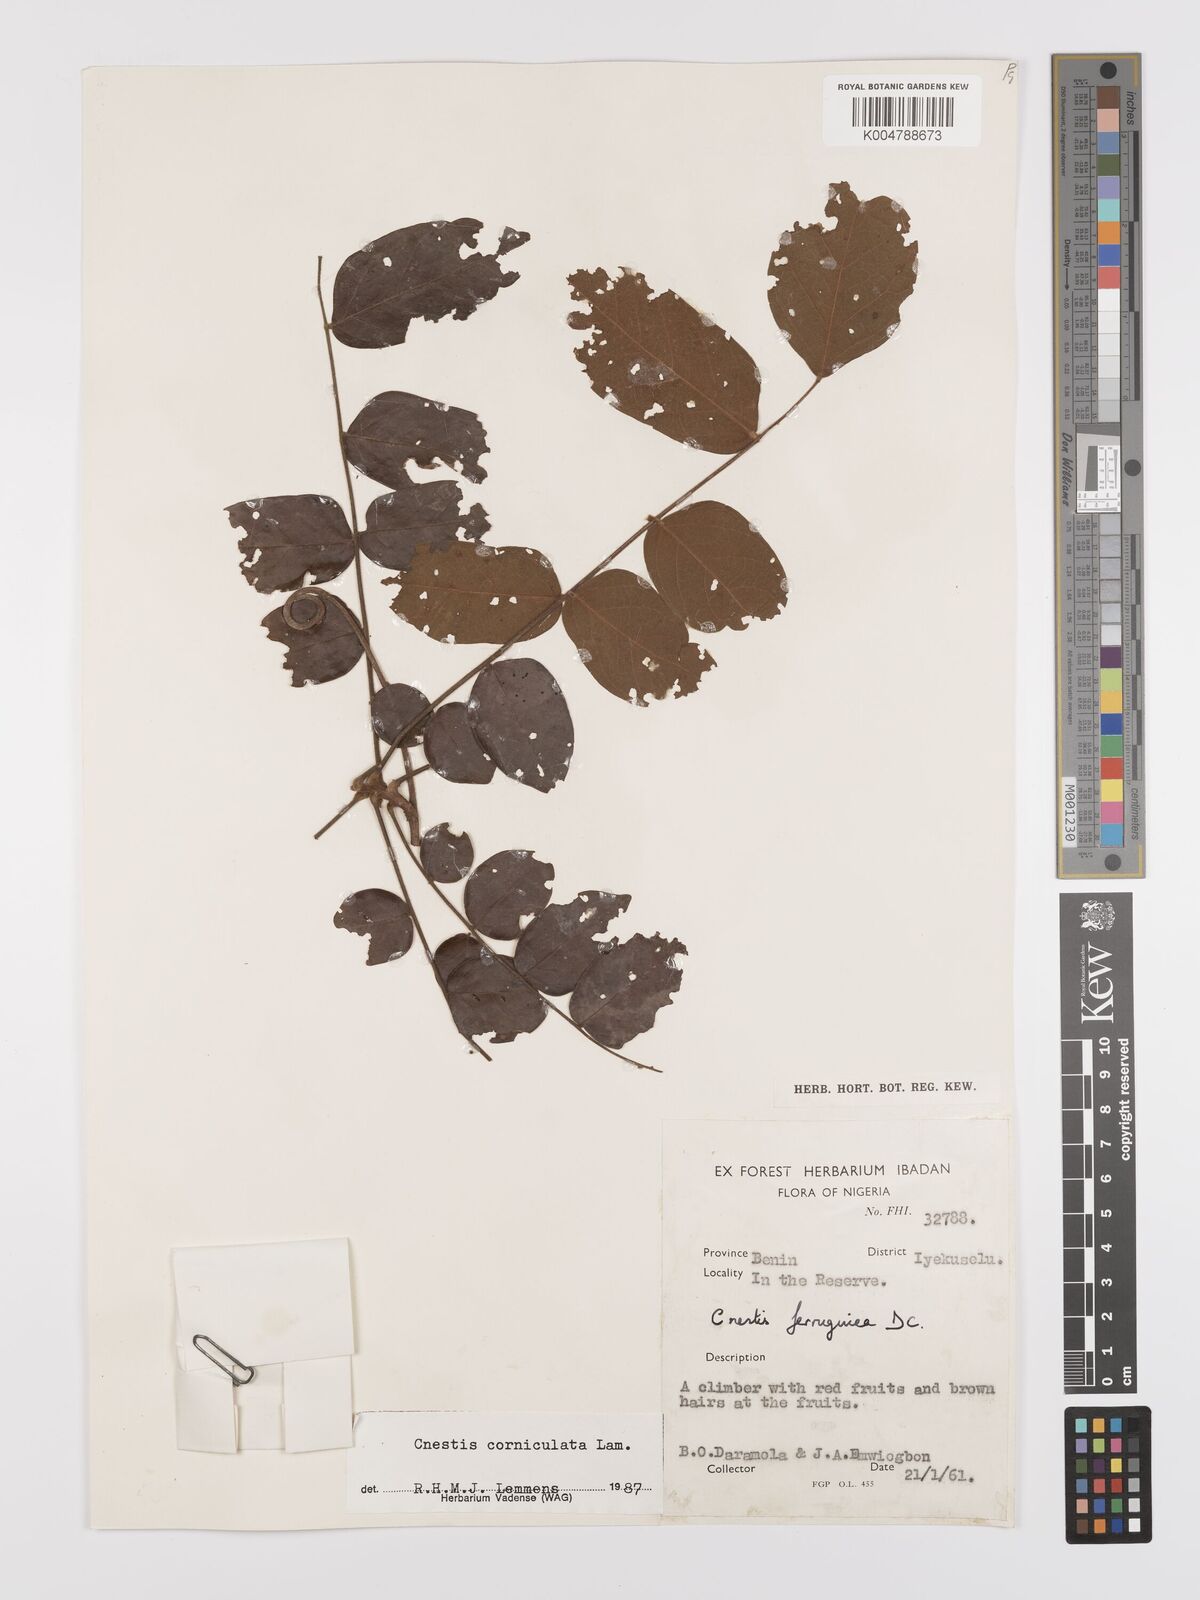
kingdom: Plantae
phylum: Tracheophyta
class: Magnoliopsida
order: Oxalidales
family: Connaraceae
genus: Cnestis
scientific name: Cnestis corniculata
